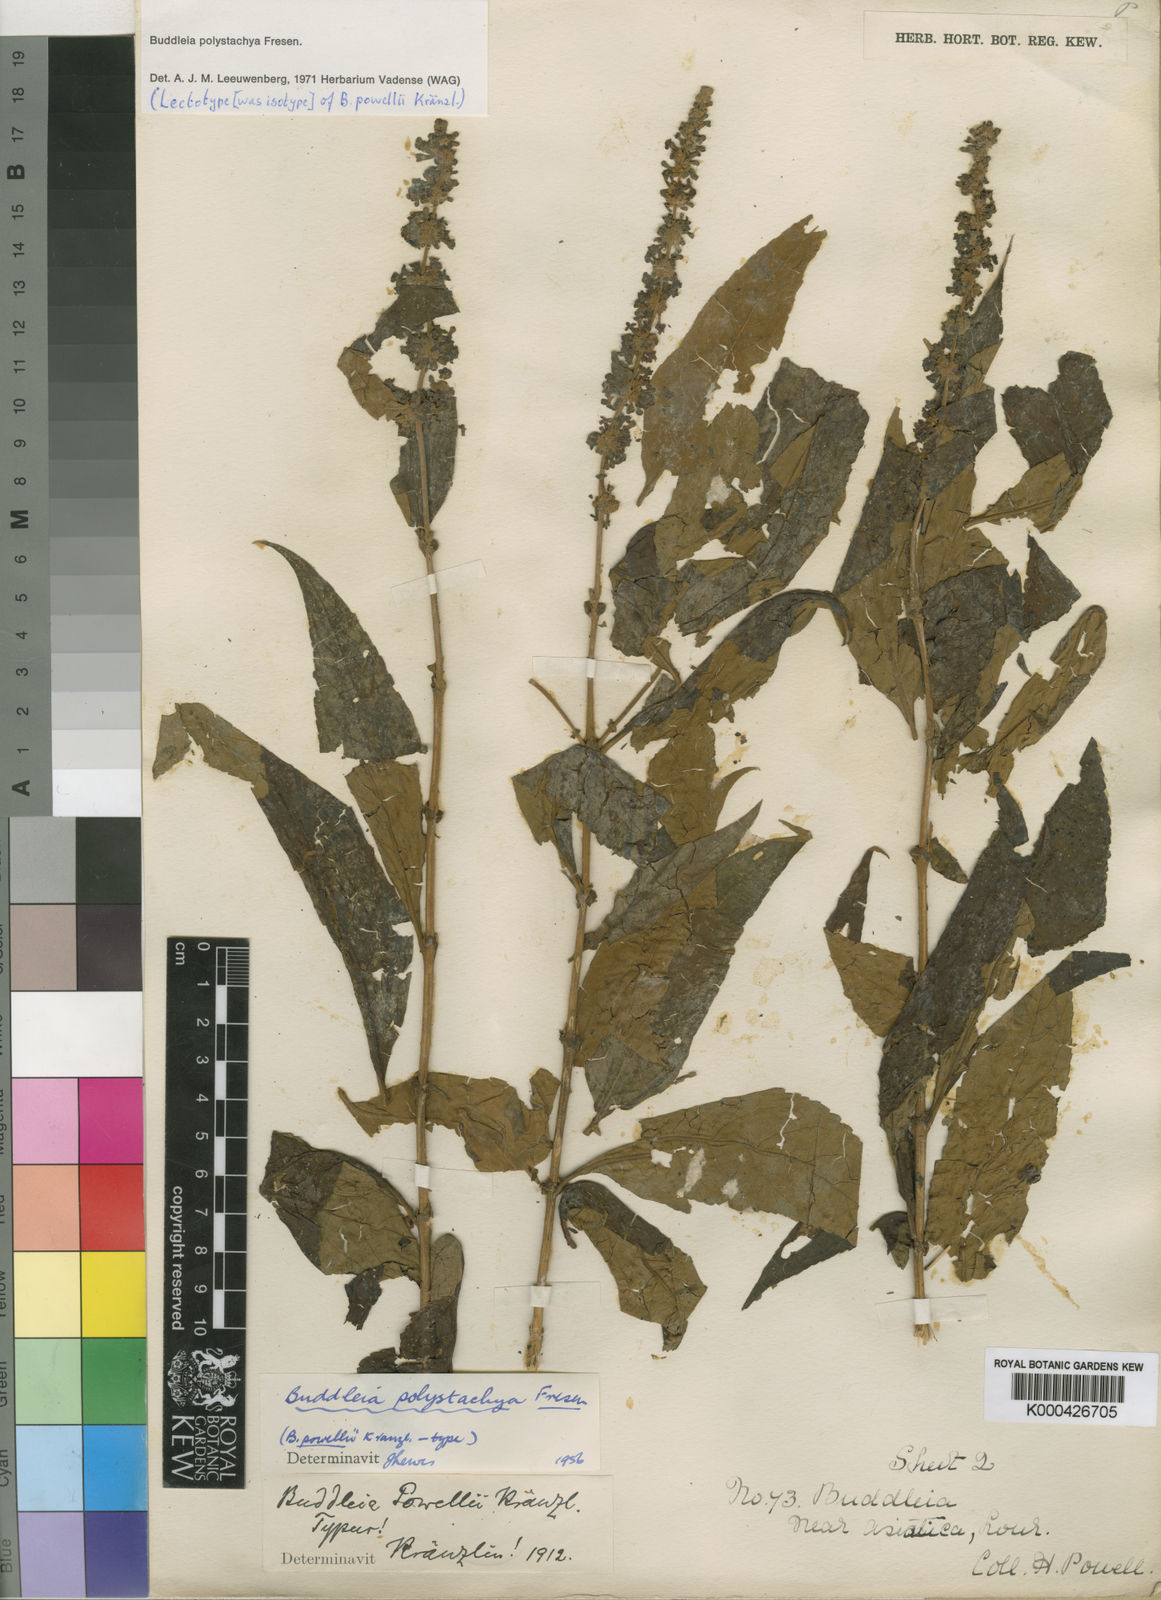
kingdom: Plantae
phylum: Tracheophyta
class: Magnoliopsida
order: Lamiales
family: Scrophulariaceae
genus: Buddleja
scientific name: Buddleja polystachya
